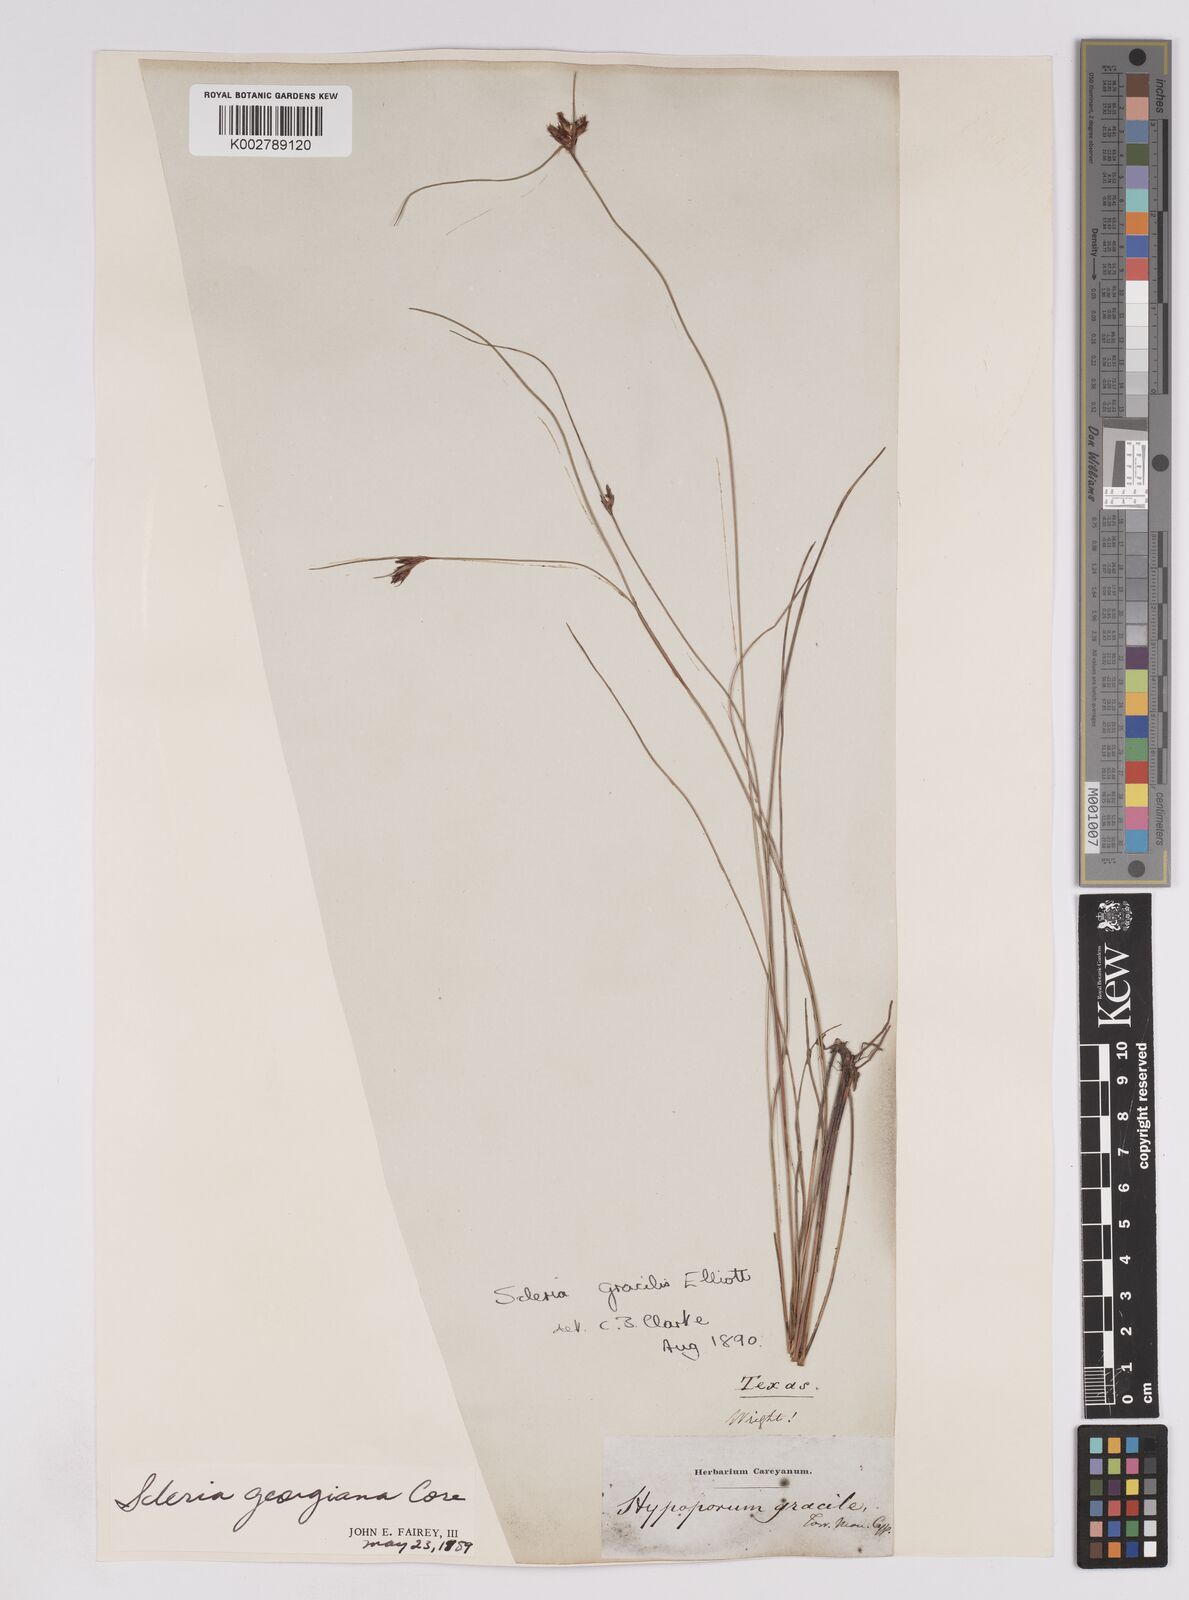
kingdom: Plantae
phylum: Tracheophyta
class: Liliopsida
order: Poales
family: Cyperaceae
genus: Scleria
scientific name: Scleria georgiana
